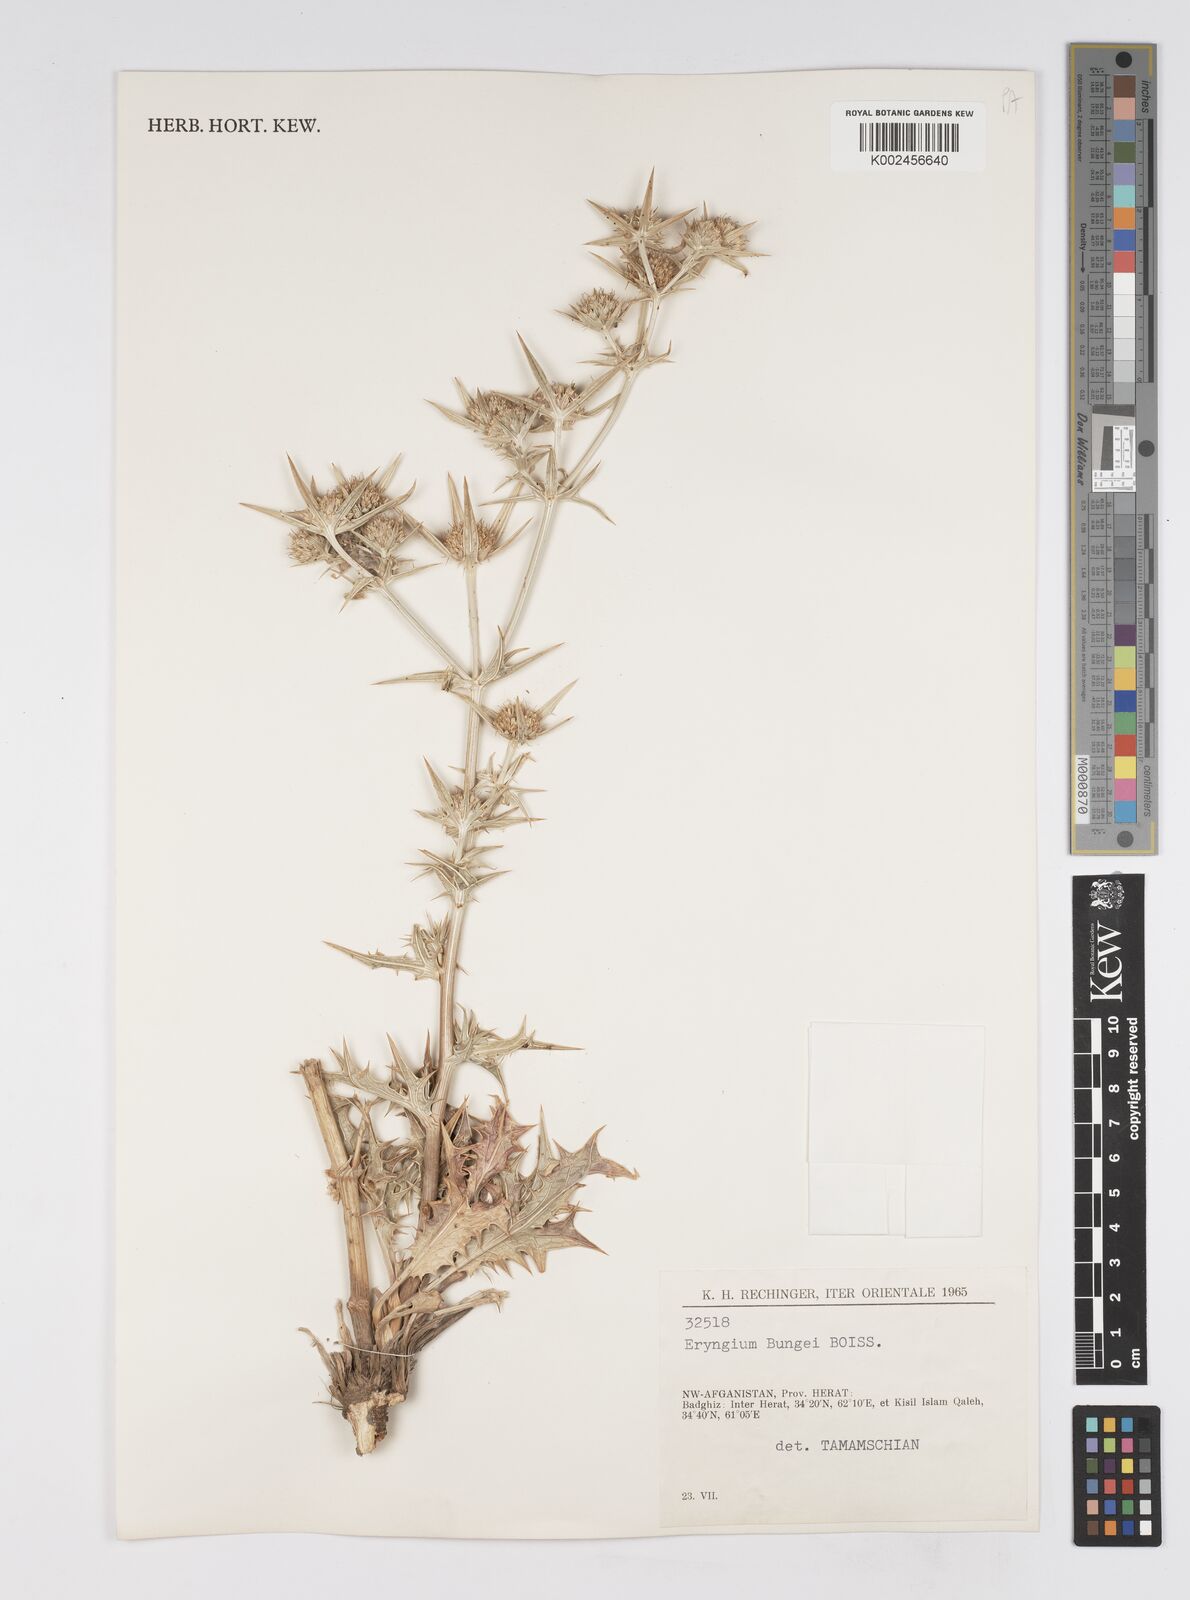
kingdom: Plantae
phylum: Tracheophyta
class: Magnoliopsida
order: Apiales
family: Apiaceae
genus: Eryngium
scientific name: Eryngium bungei
